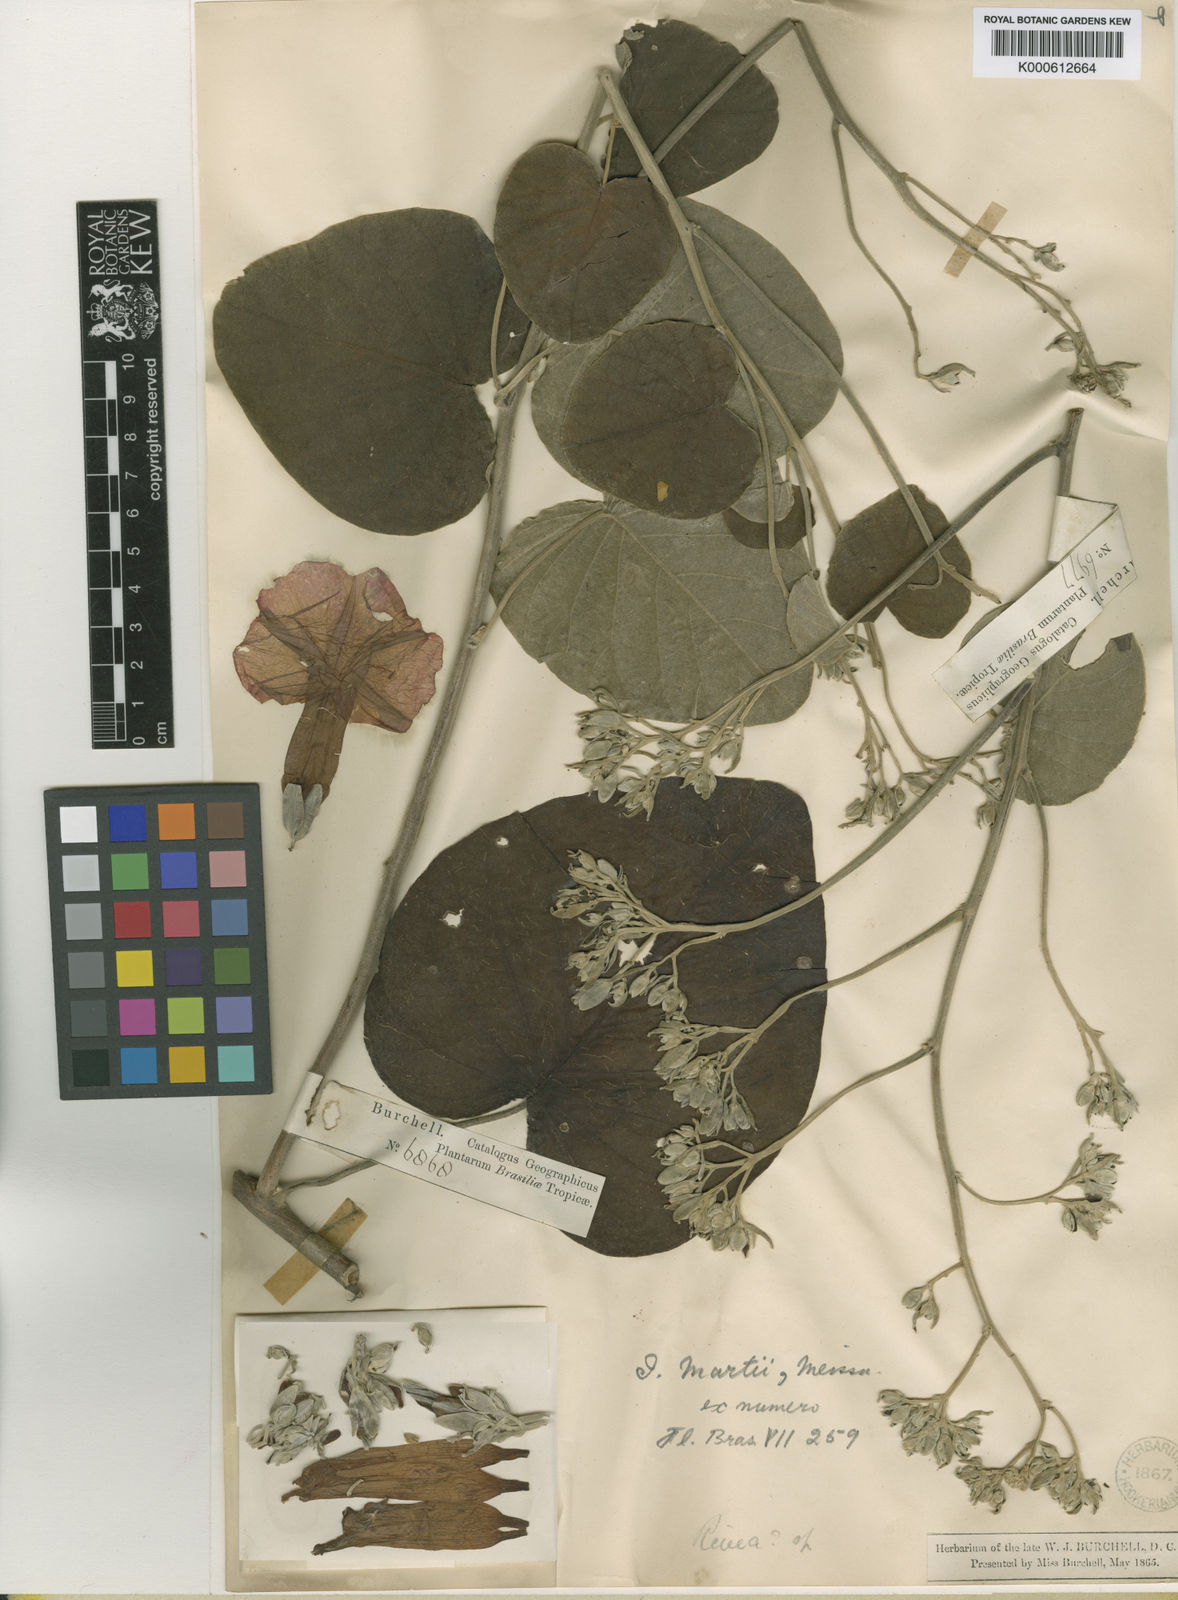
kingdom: Plantae
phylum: Tracheophyta
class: Magnoliopsida
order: Solanales
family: Convolvulaceae
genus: Ipomoea
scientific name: Ipomoea sericosepala
